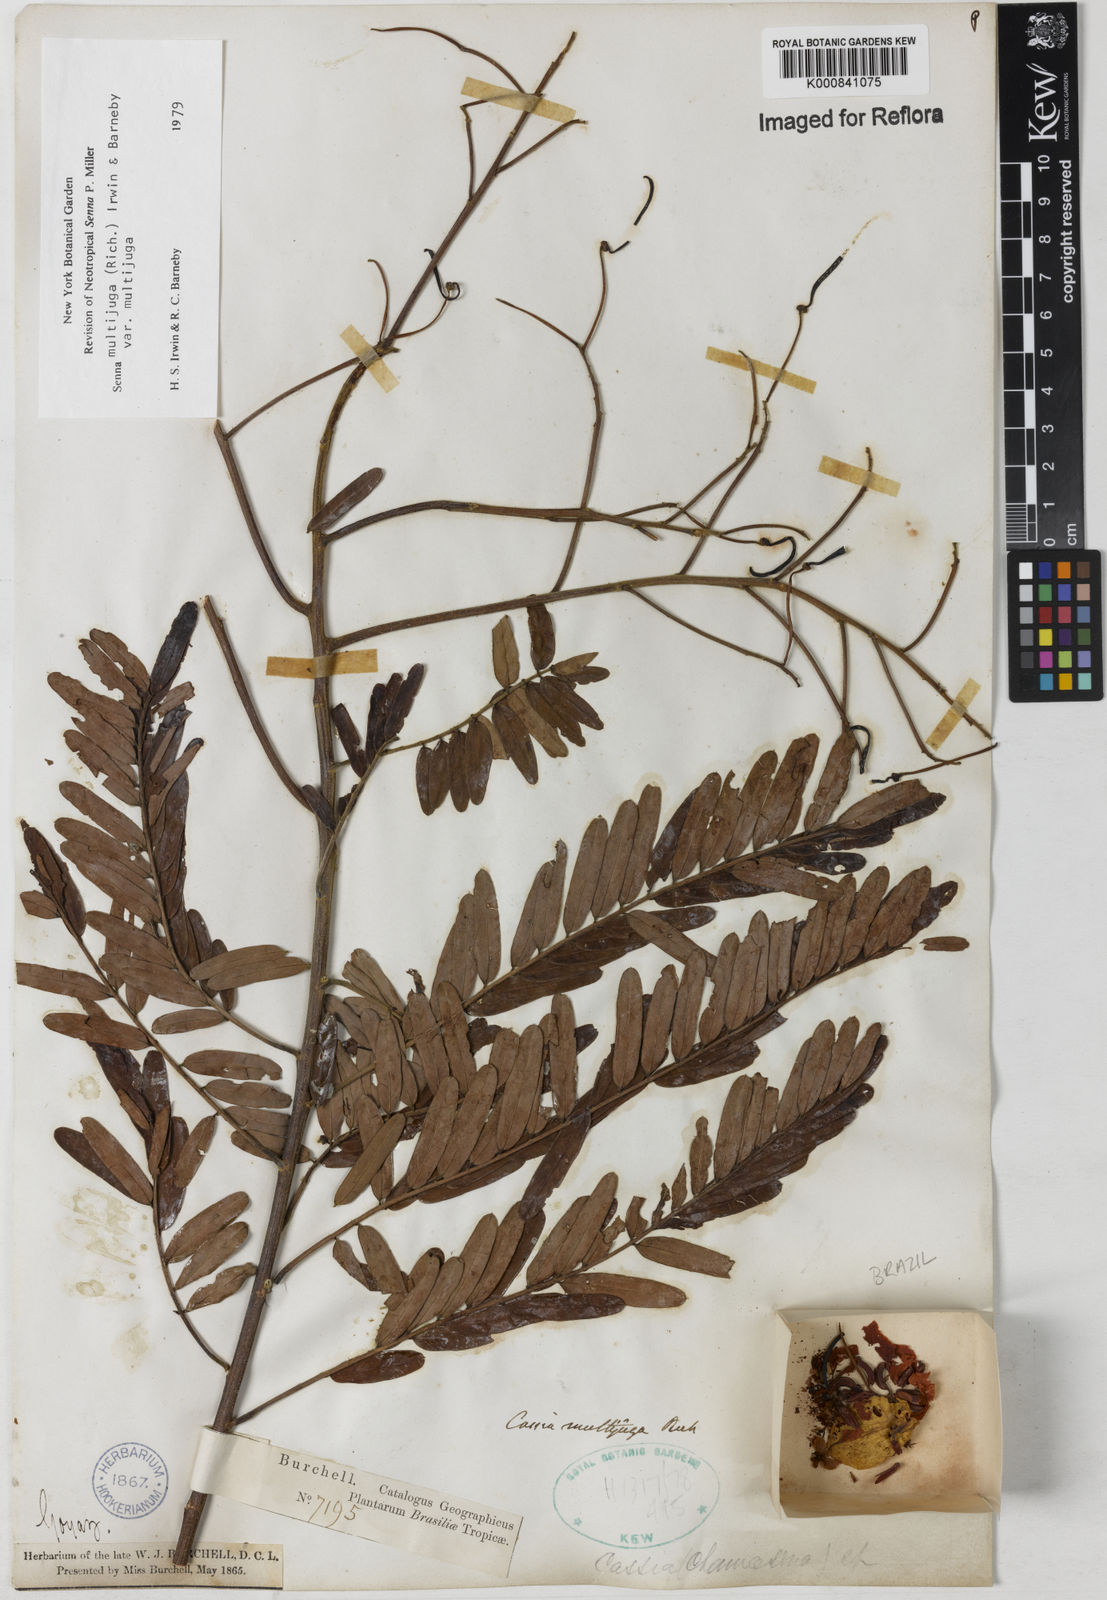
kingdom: Plantae
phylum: Tracheophyta
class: Magnoliopsida
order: Fabales
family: Fabaceae
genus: Senna
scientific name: Senna multijuga
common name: False sicklepod
